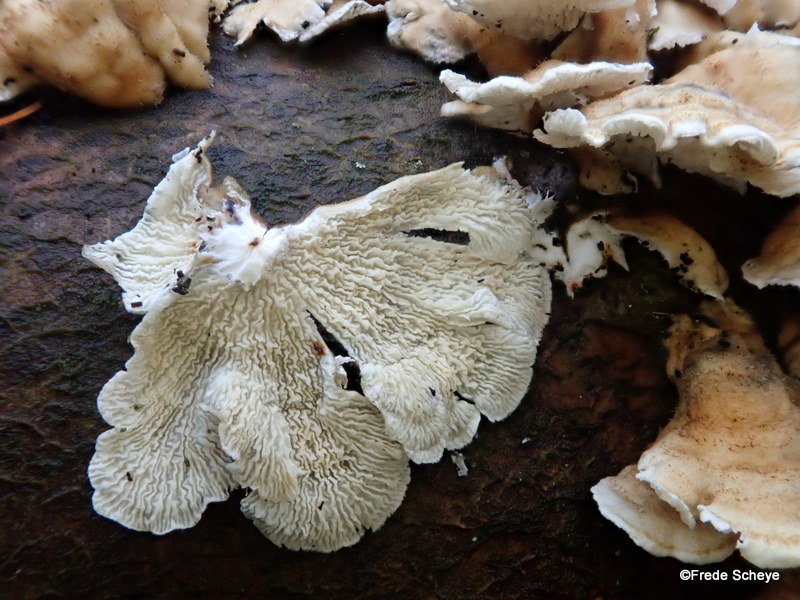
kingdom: Fungi
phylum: Basidiomycota
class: Agaricomycetes
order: Amylocorticiales
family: Amylocorticiaceae
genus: Plicaturopsis
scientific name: Plicaturopsis crispa
